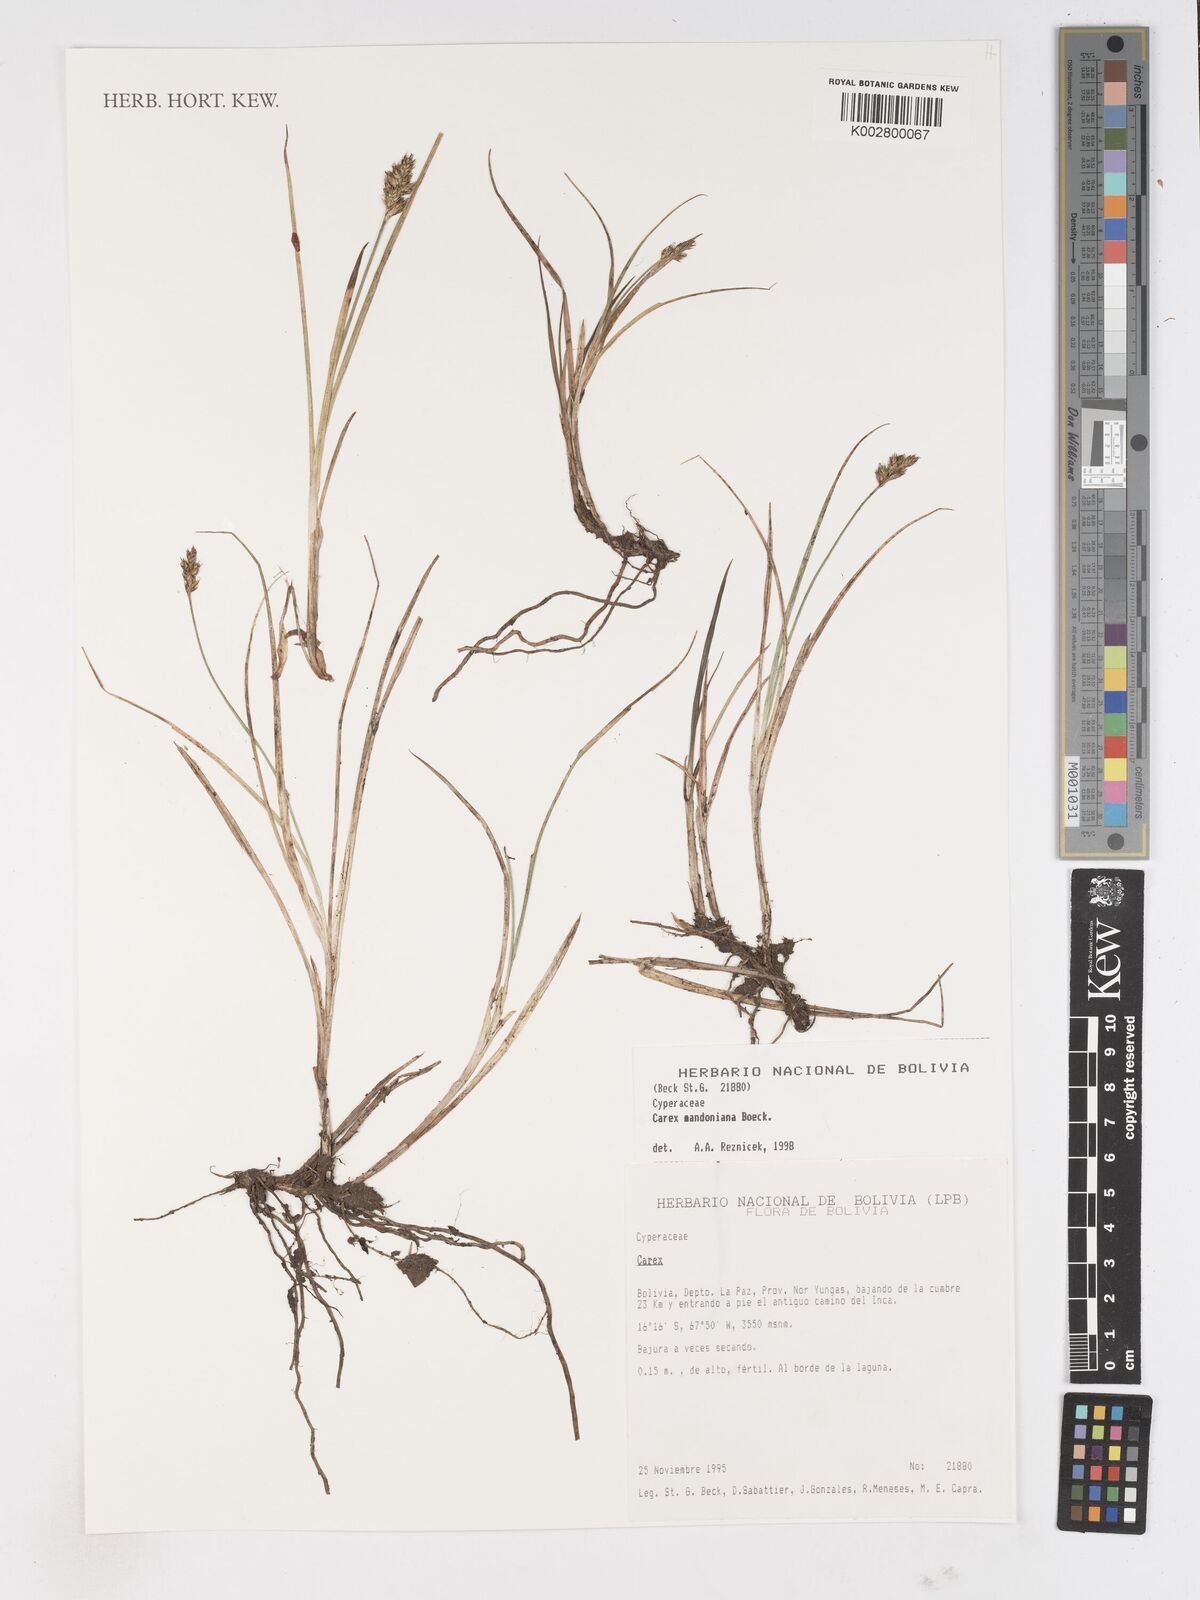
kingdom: Plantae
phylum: Tracheophyta
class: Liliopsida
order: Poales
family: Cyperaceae
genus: Carex
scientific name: Carex mandoniana
